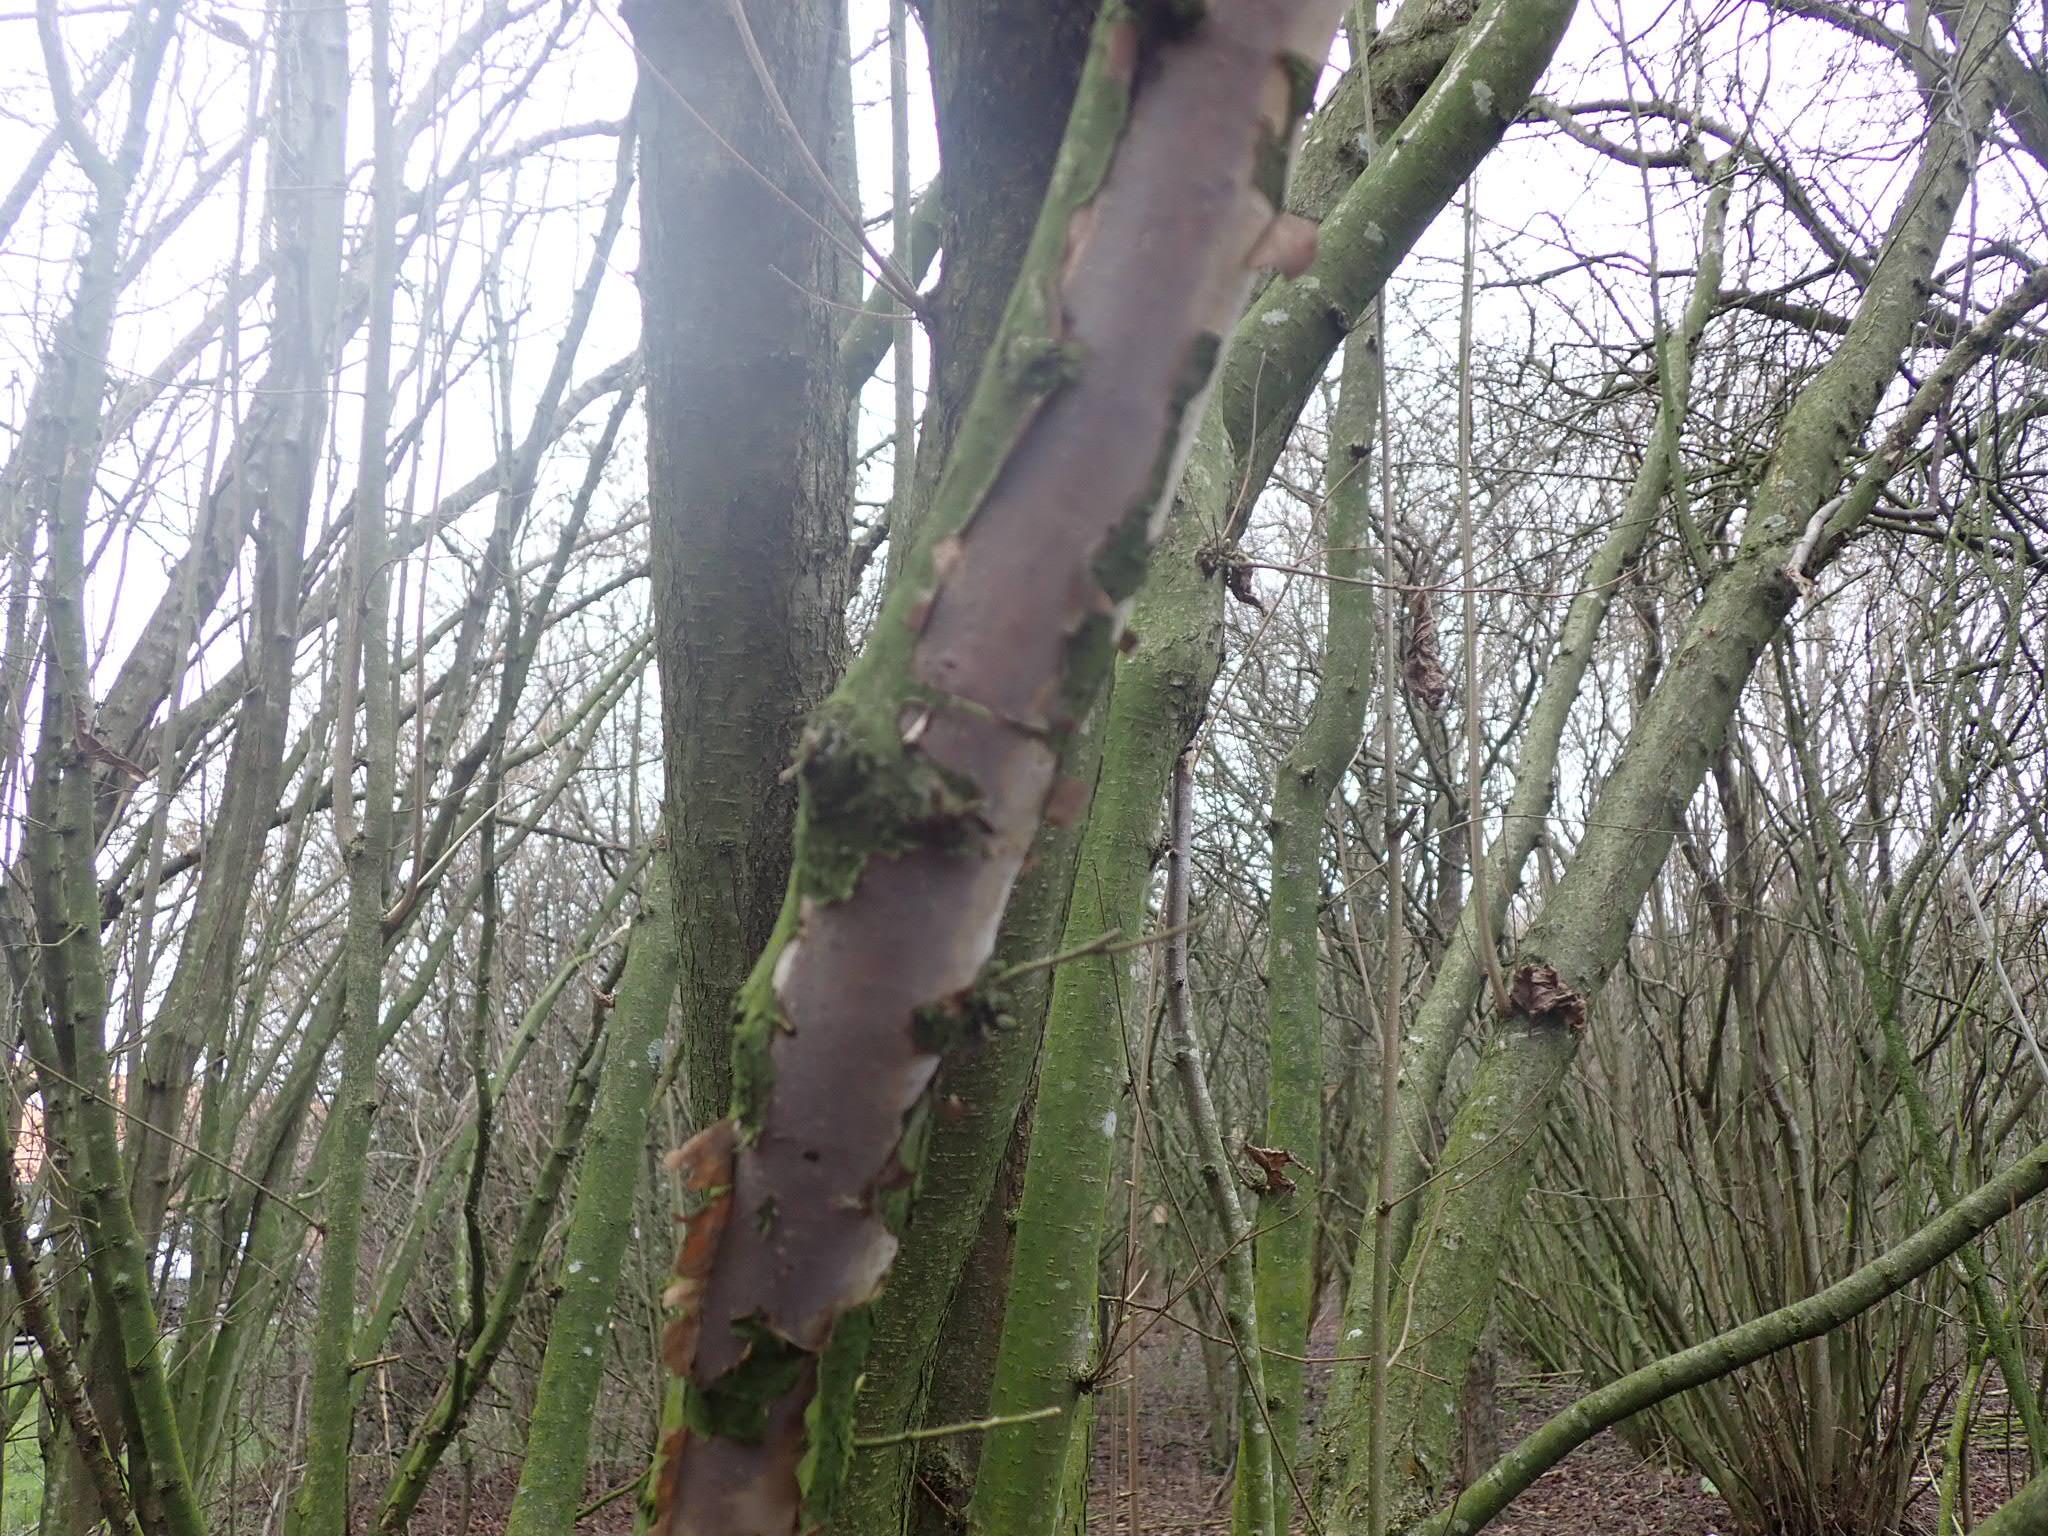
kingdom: Fungi
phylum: Basidiomycota
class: Agaricomycetes
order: Corticiales
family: Vuilleminiaceae
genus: Vuilleminia
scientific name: Vuilleminia coryli
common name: hassel-barksprænger
